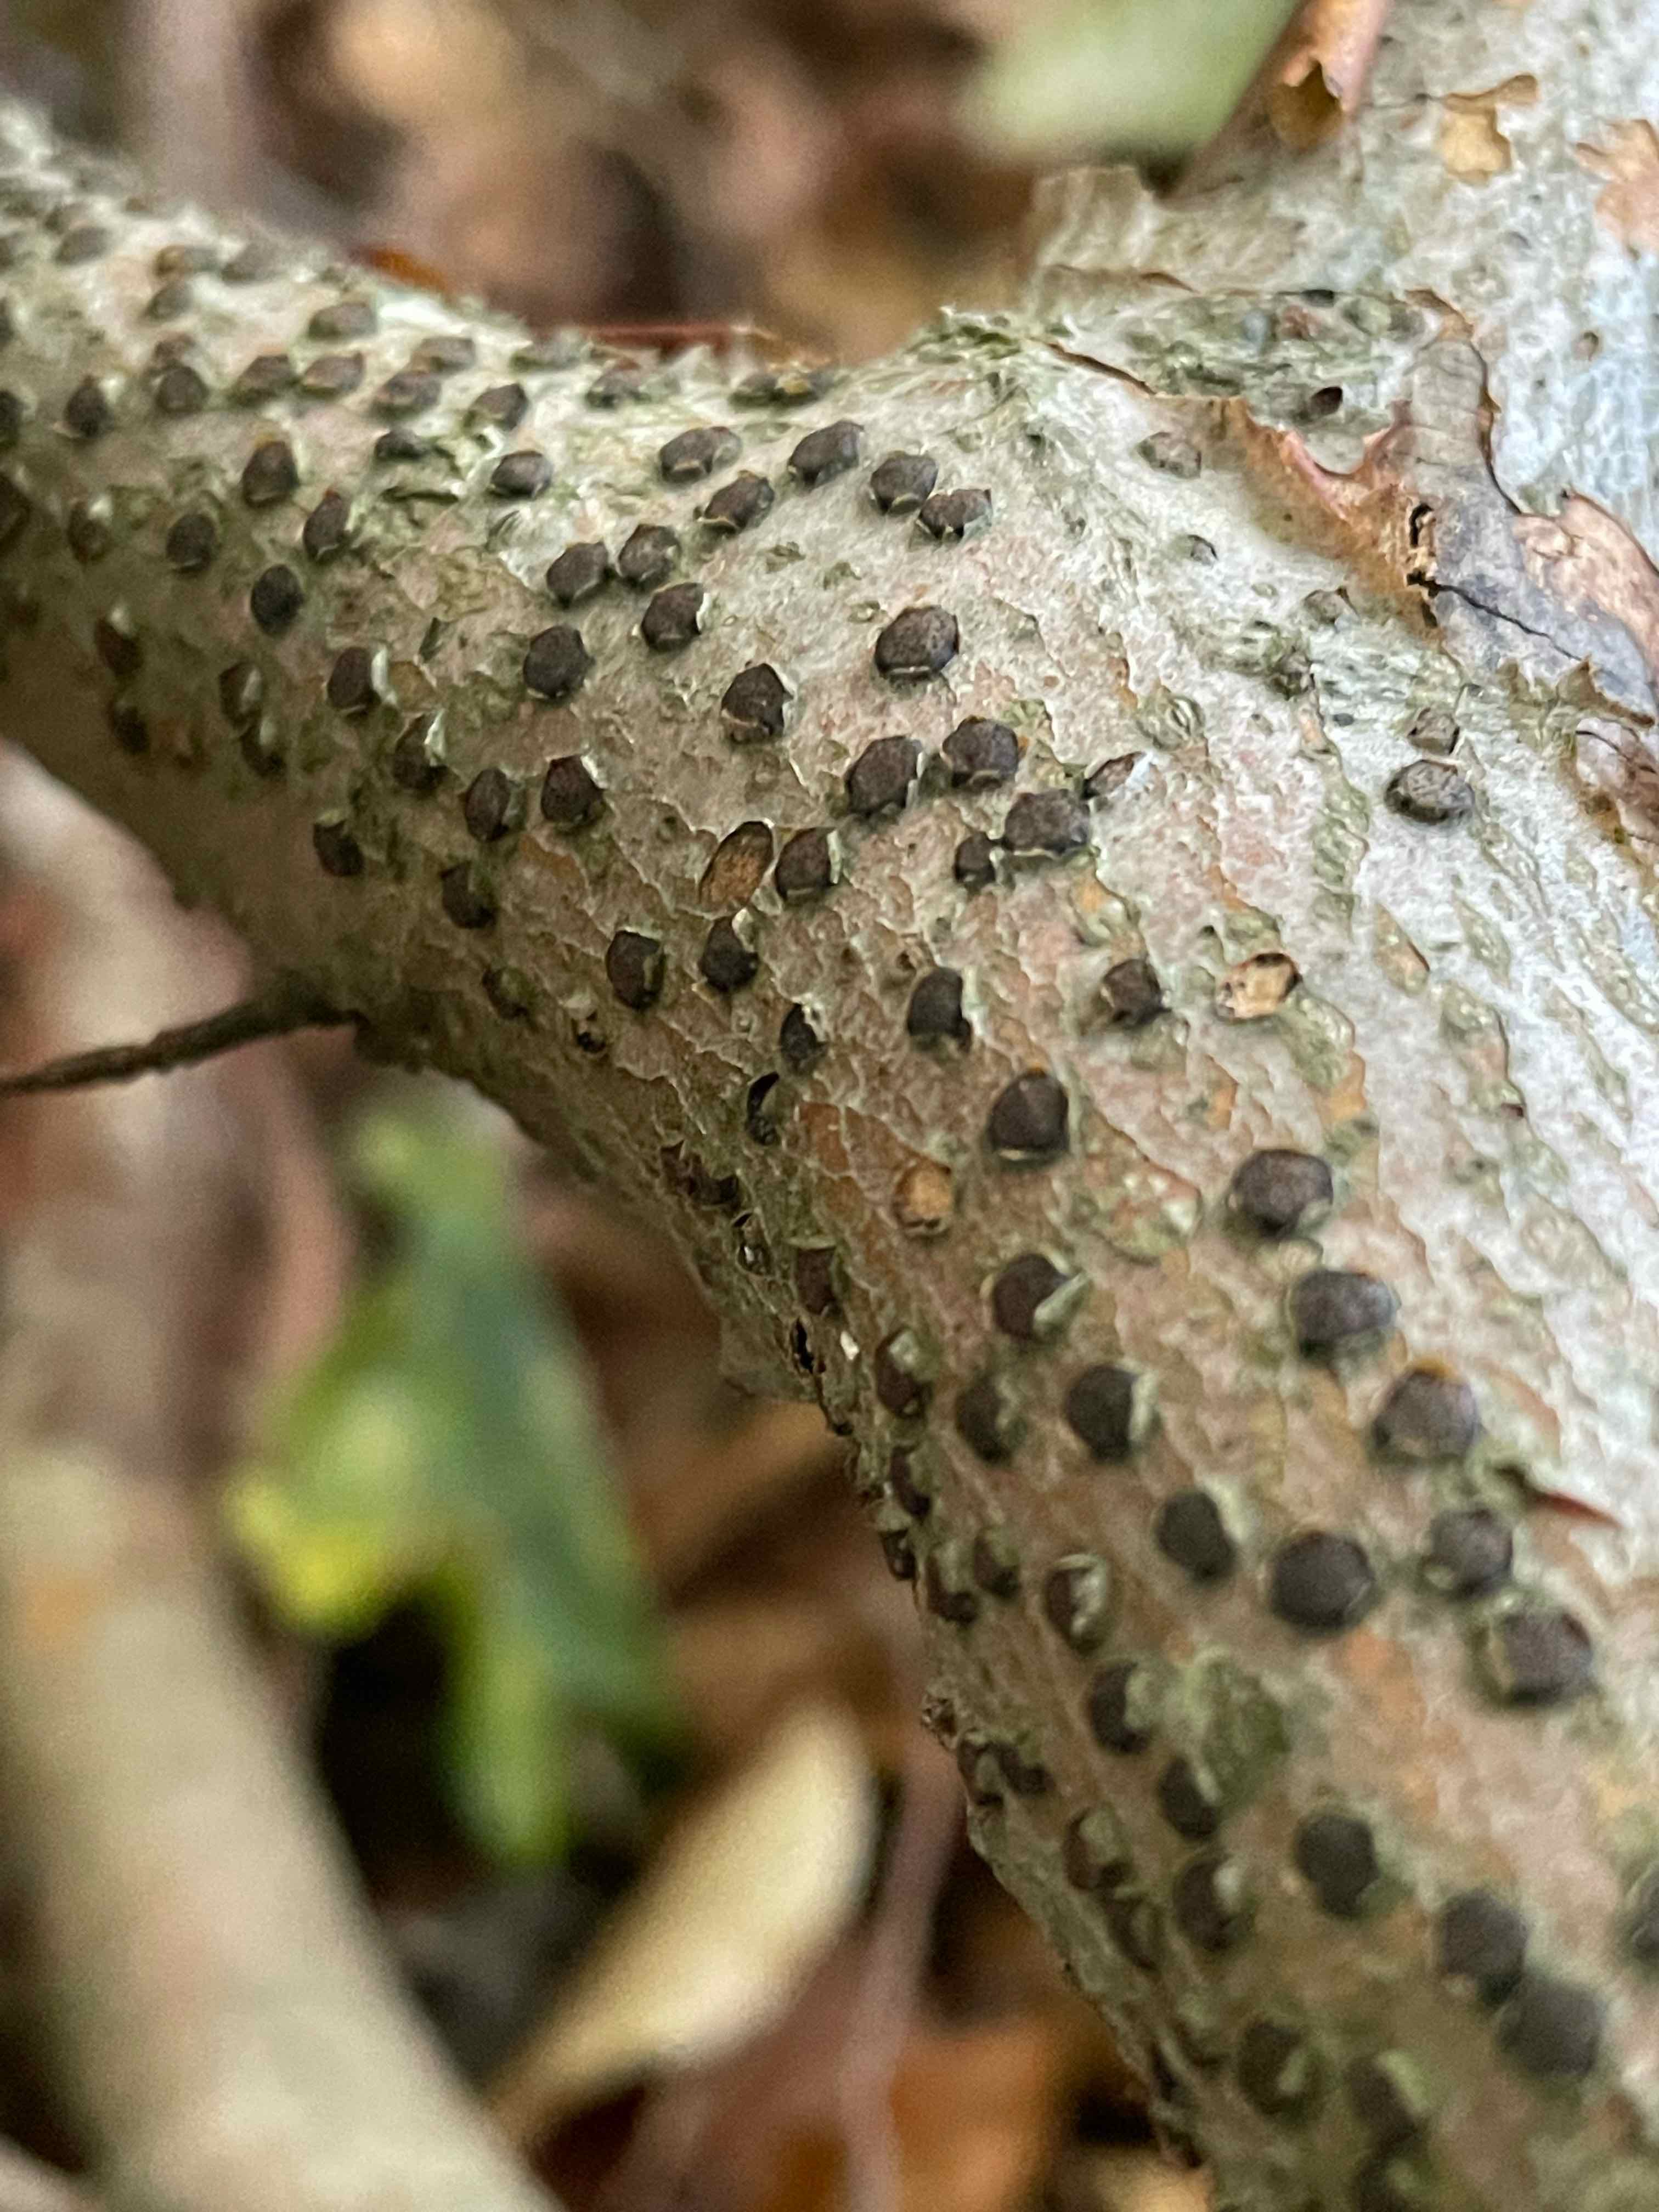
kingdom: Fungi
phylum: Ascomycota
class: Sordariomycetes
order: Xylariales
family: Diatrypaceae
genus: Diatrype
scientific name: Diatrype disciformis
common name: kant-kulskorpe
